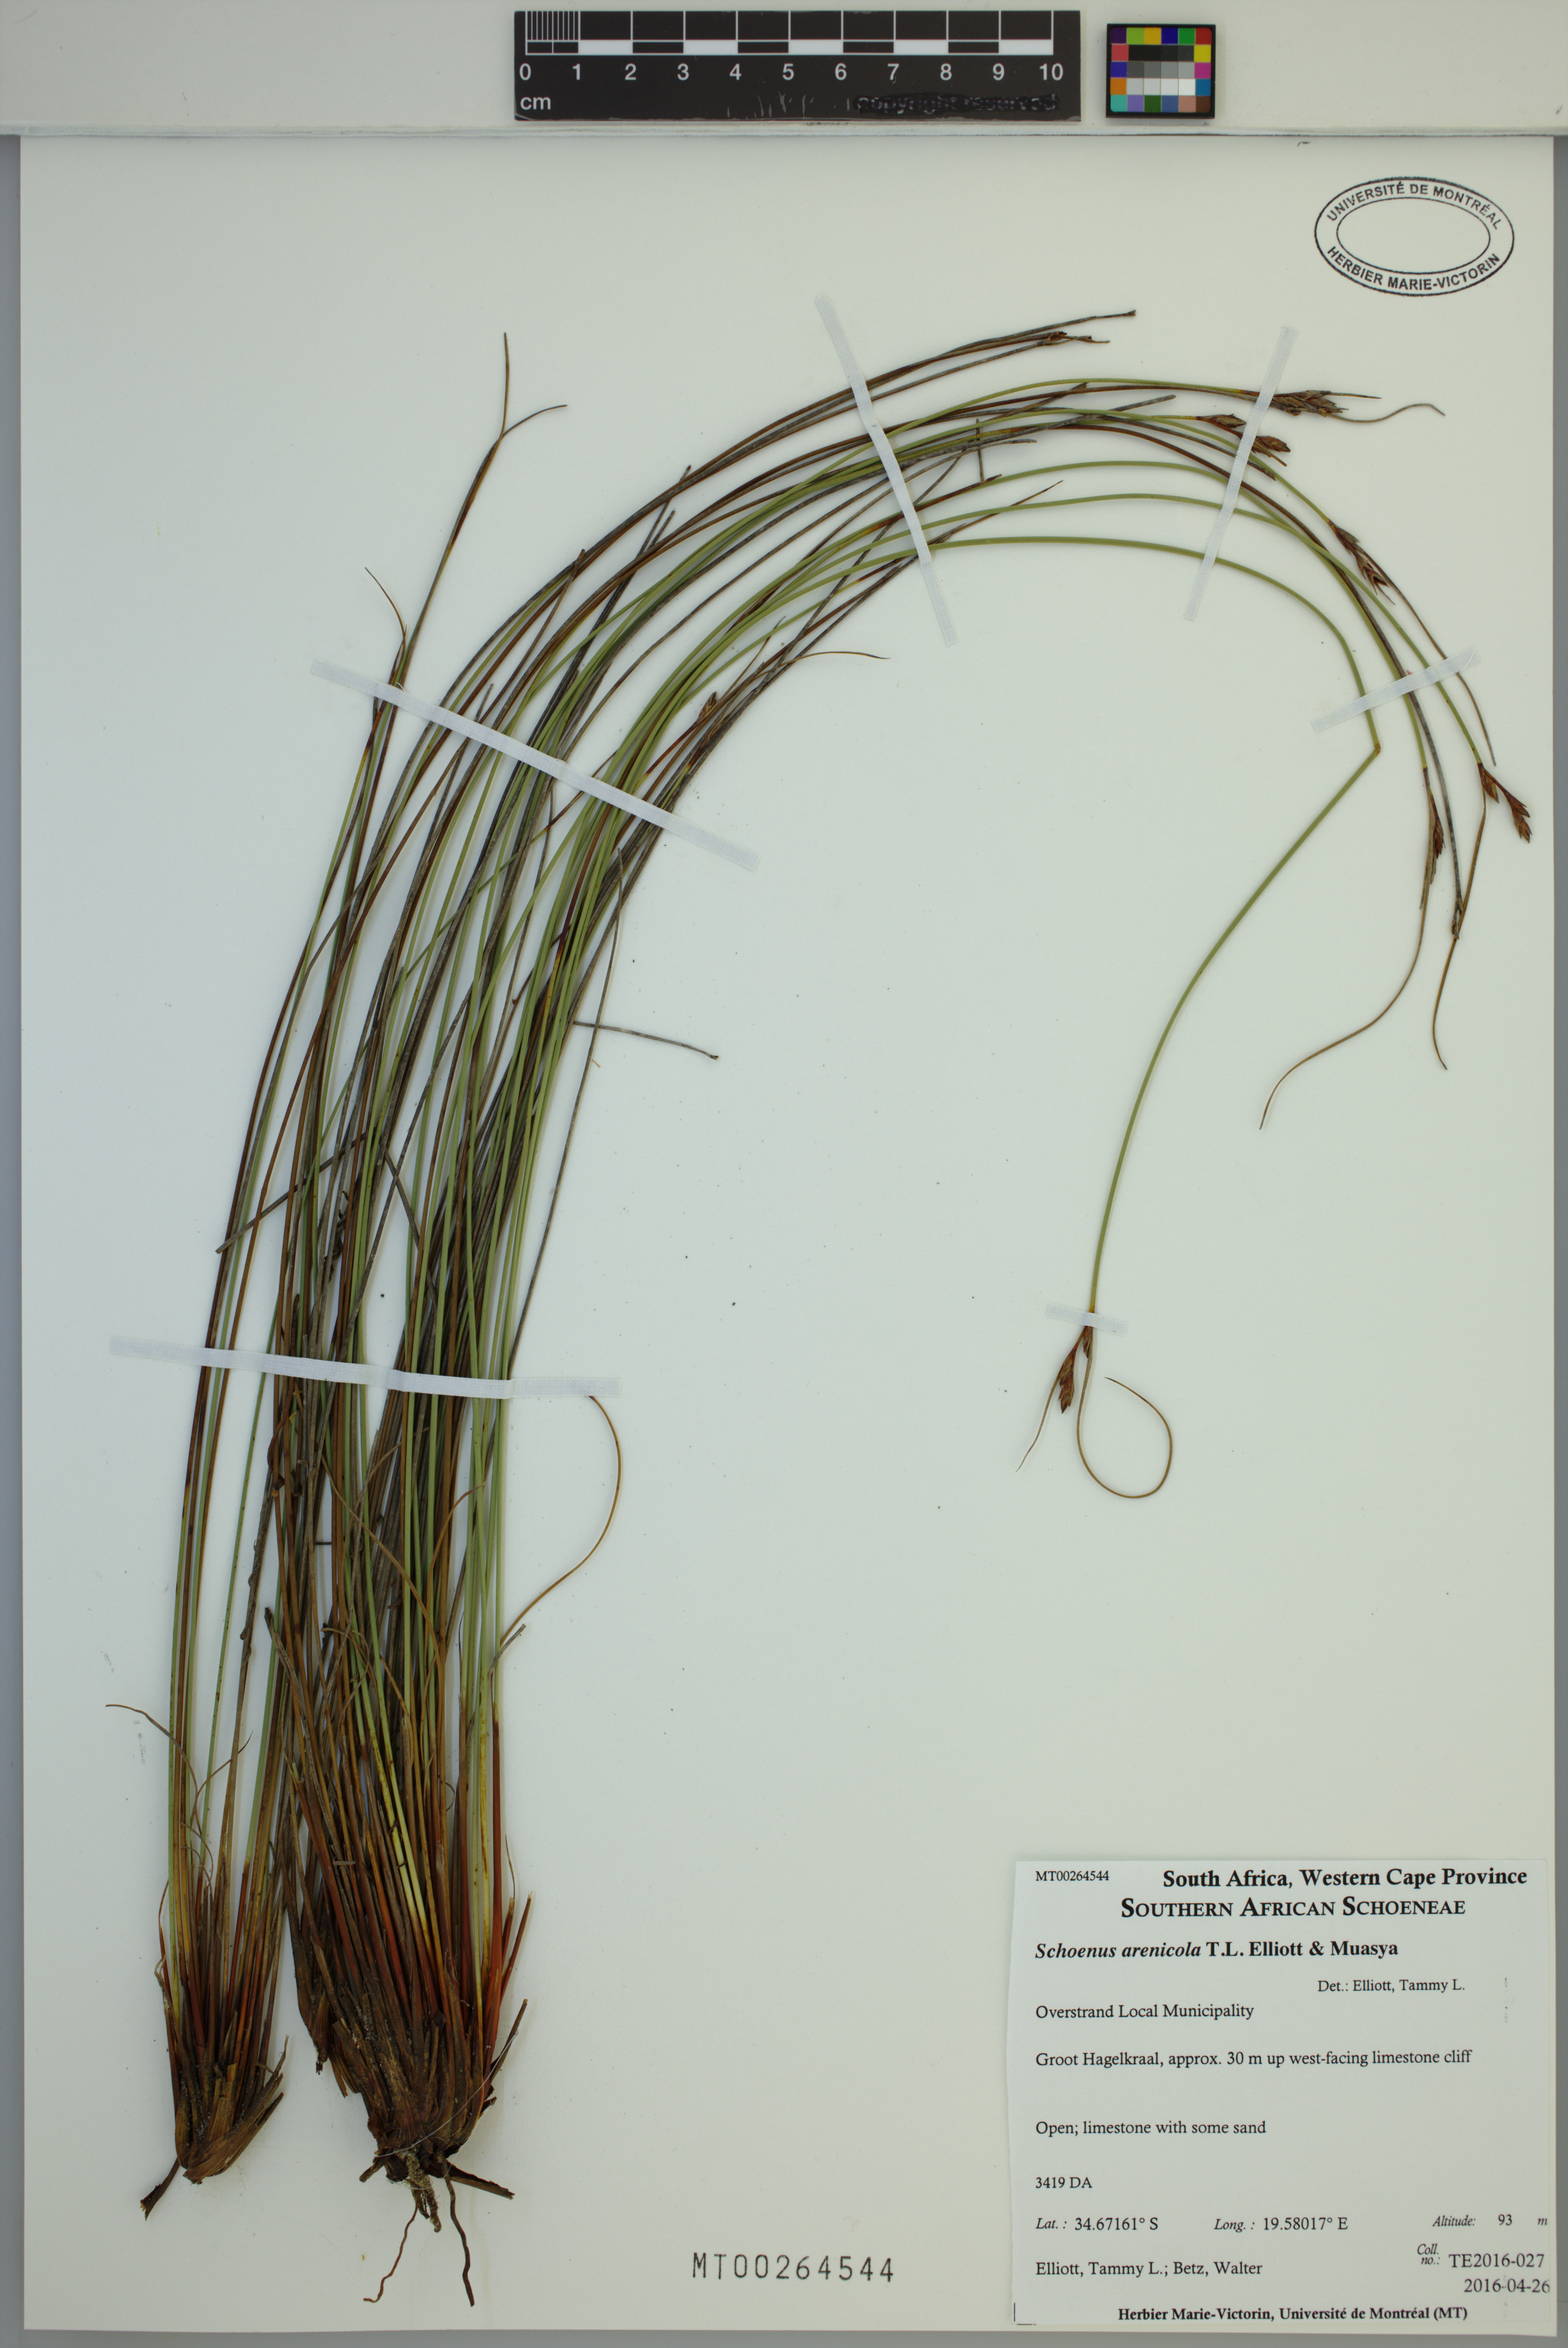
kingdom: Plantae
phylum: Tracheophyta
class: Liliopsida
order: Poales
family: Cyperaceae
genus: Schoenus
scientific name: Schoenus arenicola
